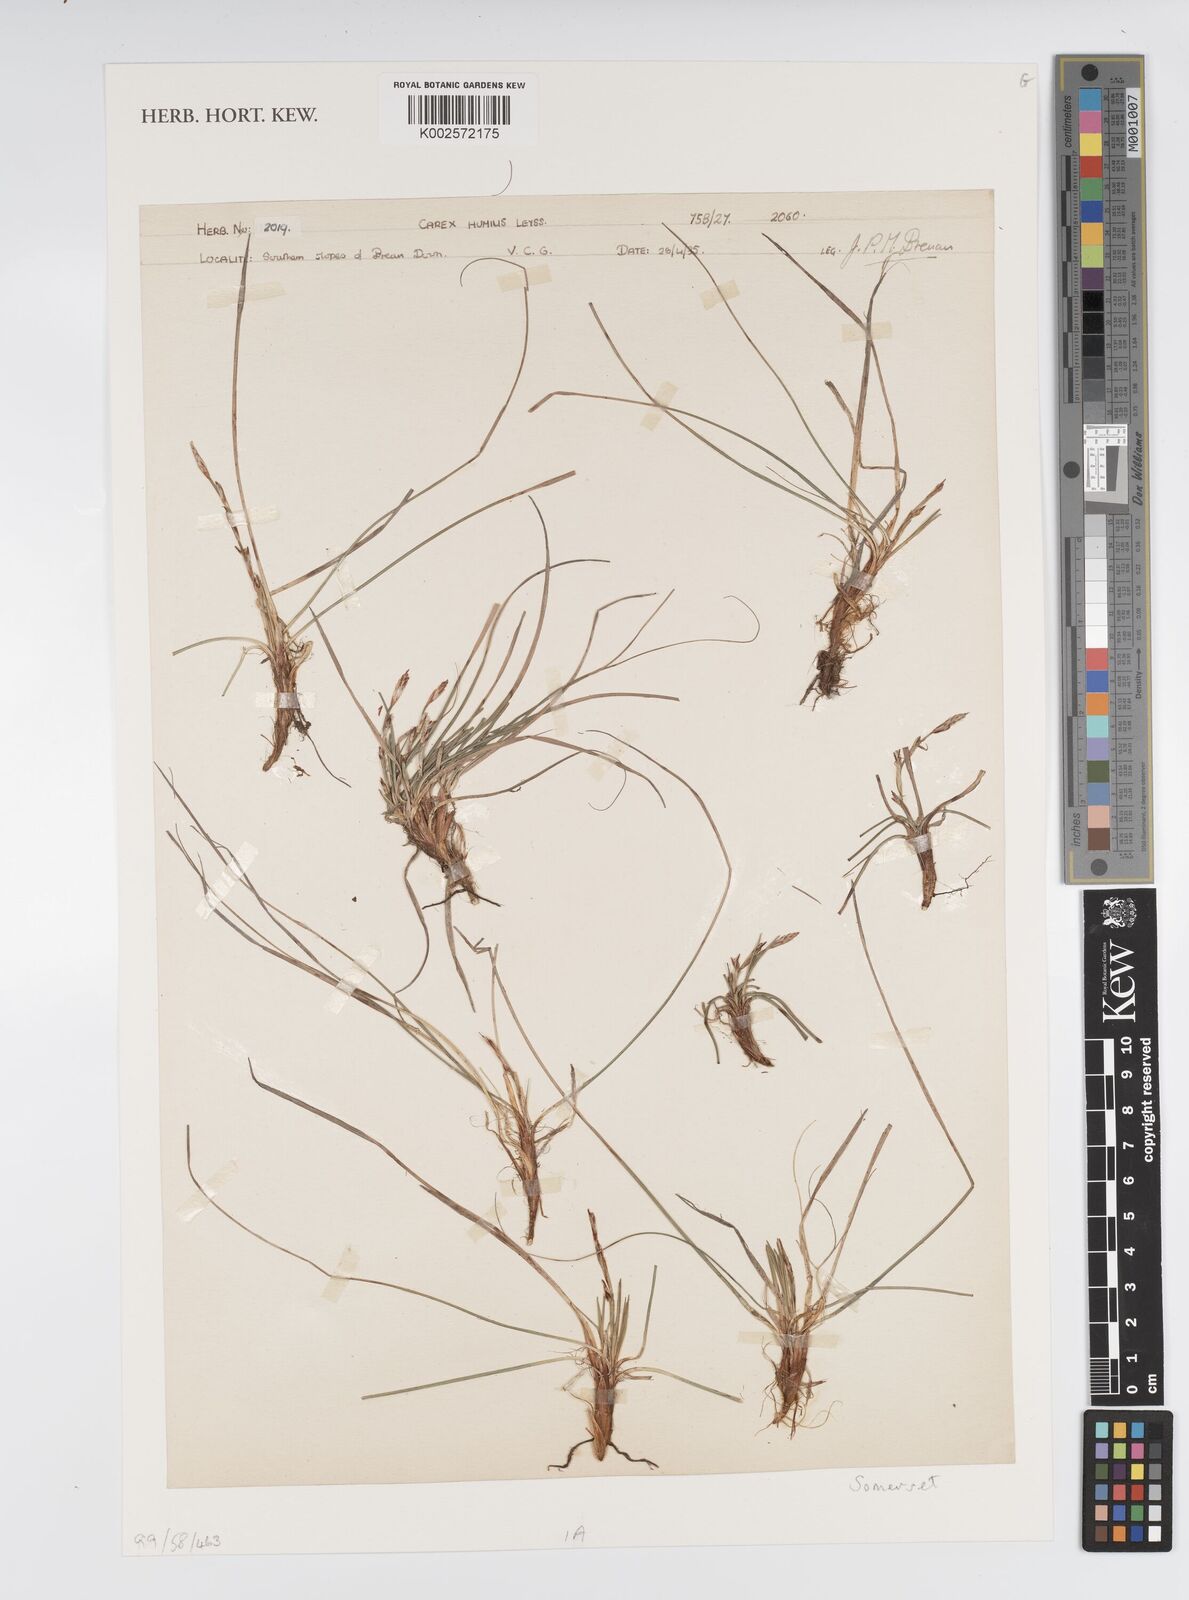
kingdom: Plantae
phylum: Tracheophyta
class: Liliopsida
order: Poales
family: Cyperaceae
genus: Carex
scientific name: Carex humilis
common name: Dwarf sedge
